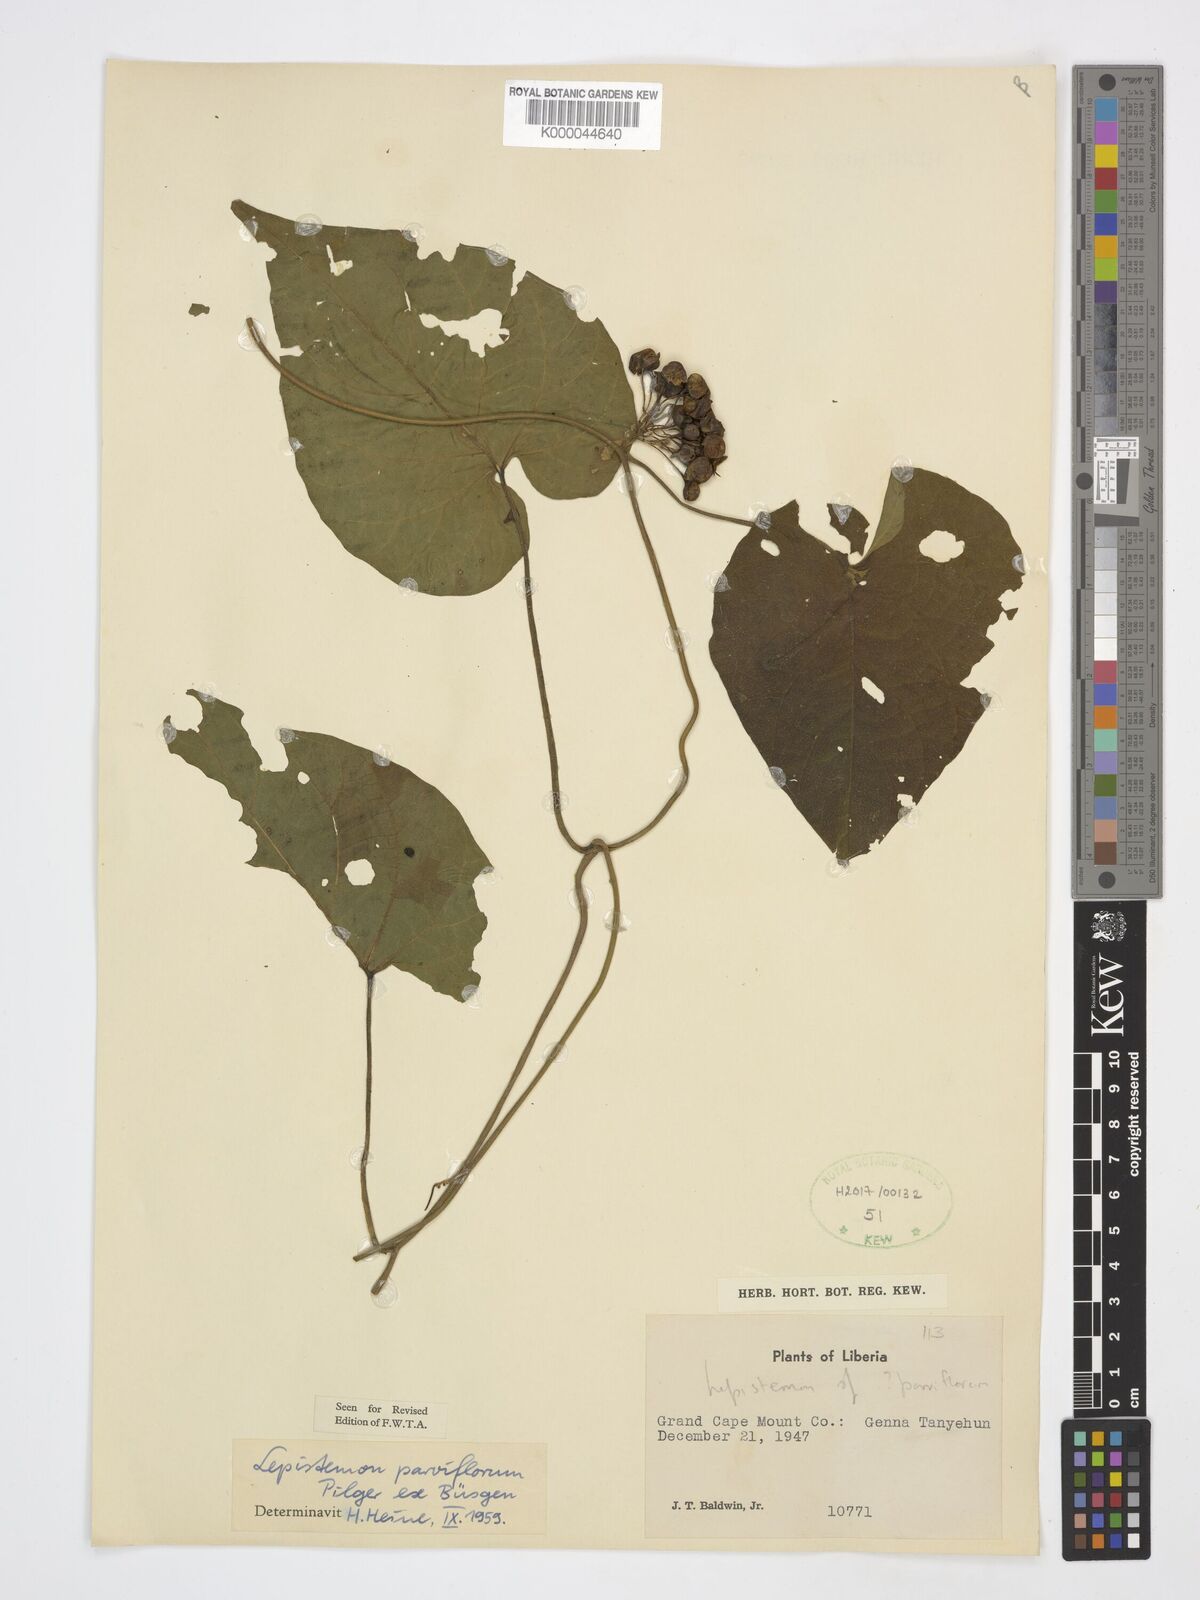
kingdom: Plantae
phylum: Tracheophyta
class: Magnoliopsida
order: Solanales
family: Convolvulaceae
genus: Lepistemon
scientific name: Lepistemon
